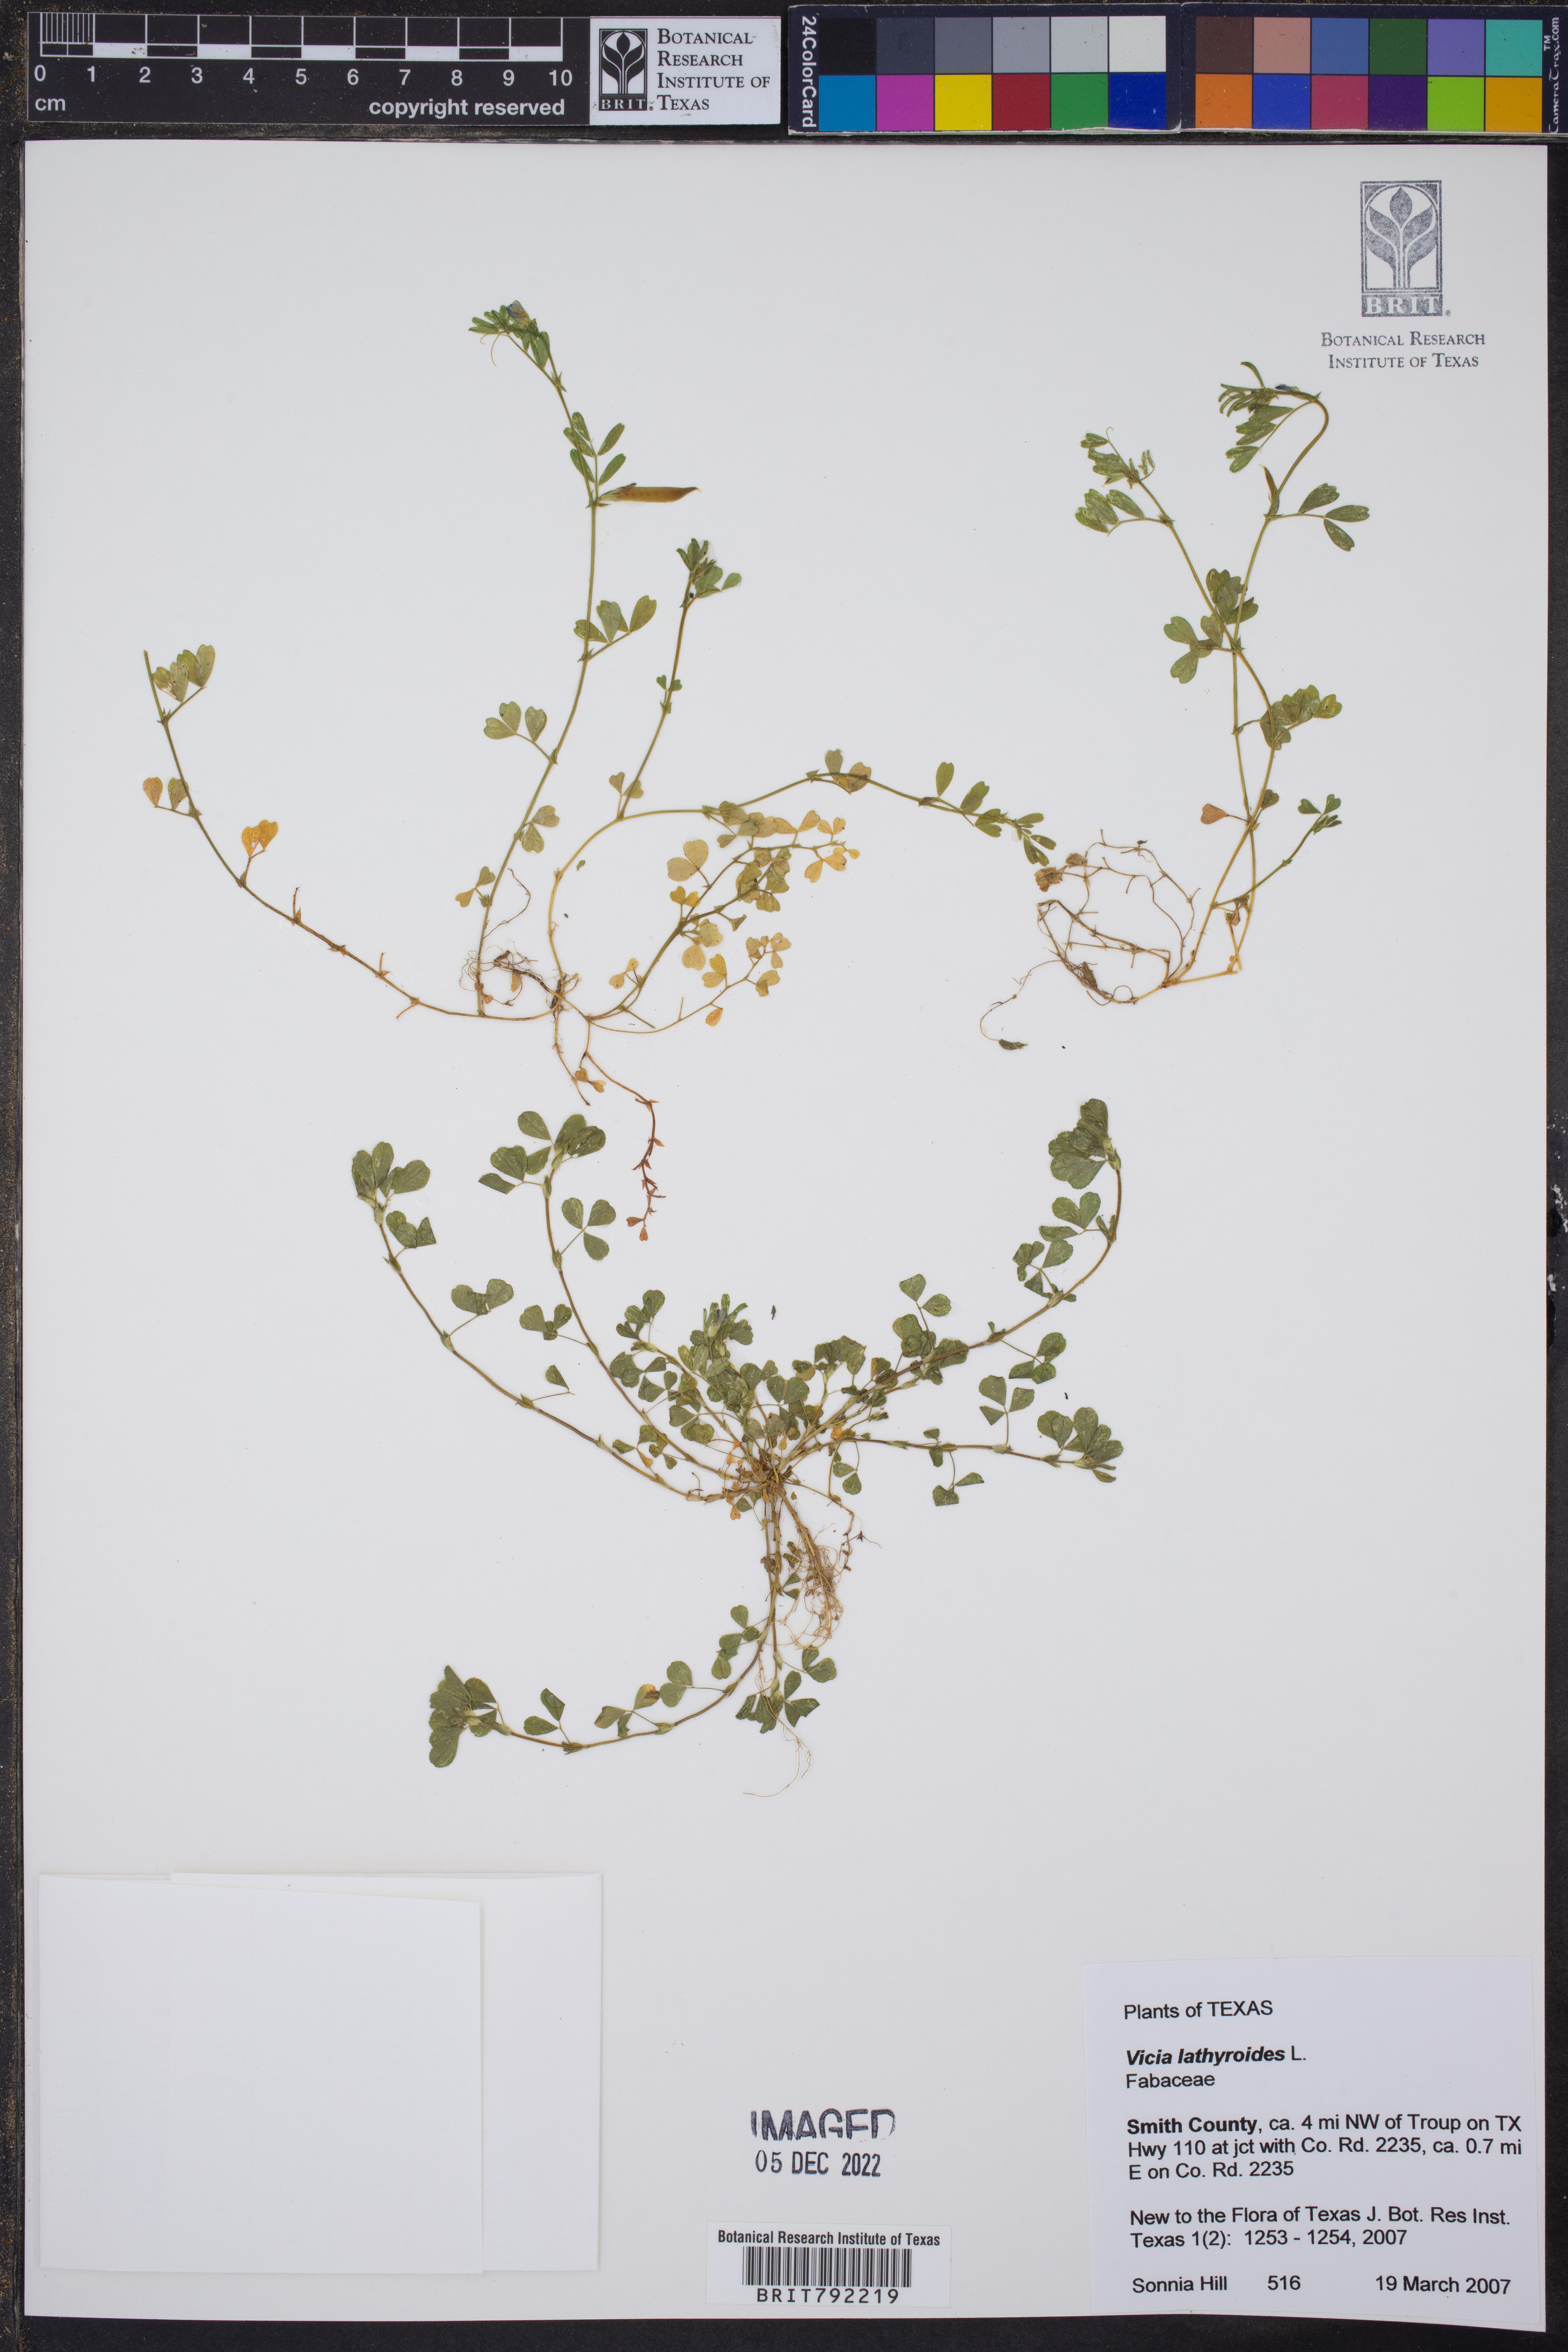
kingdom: Plantae
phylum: Tracheophyta
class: Magnoliopsida
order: Fabales
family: Fabaceae
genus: Vicia
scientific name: Vicia lathyroides
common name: Spring vetch
